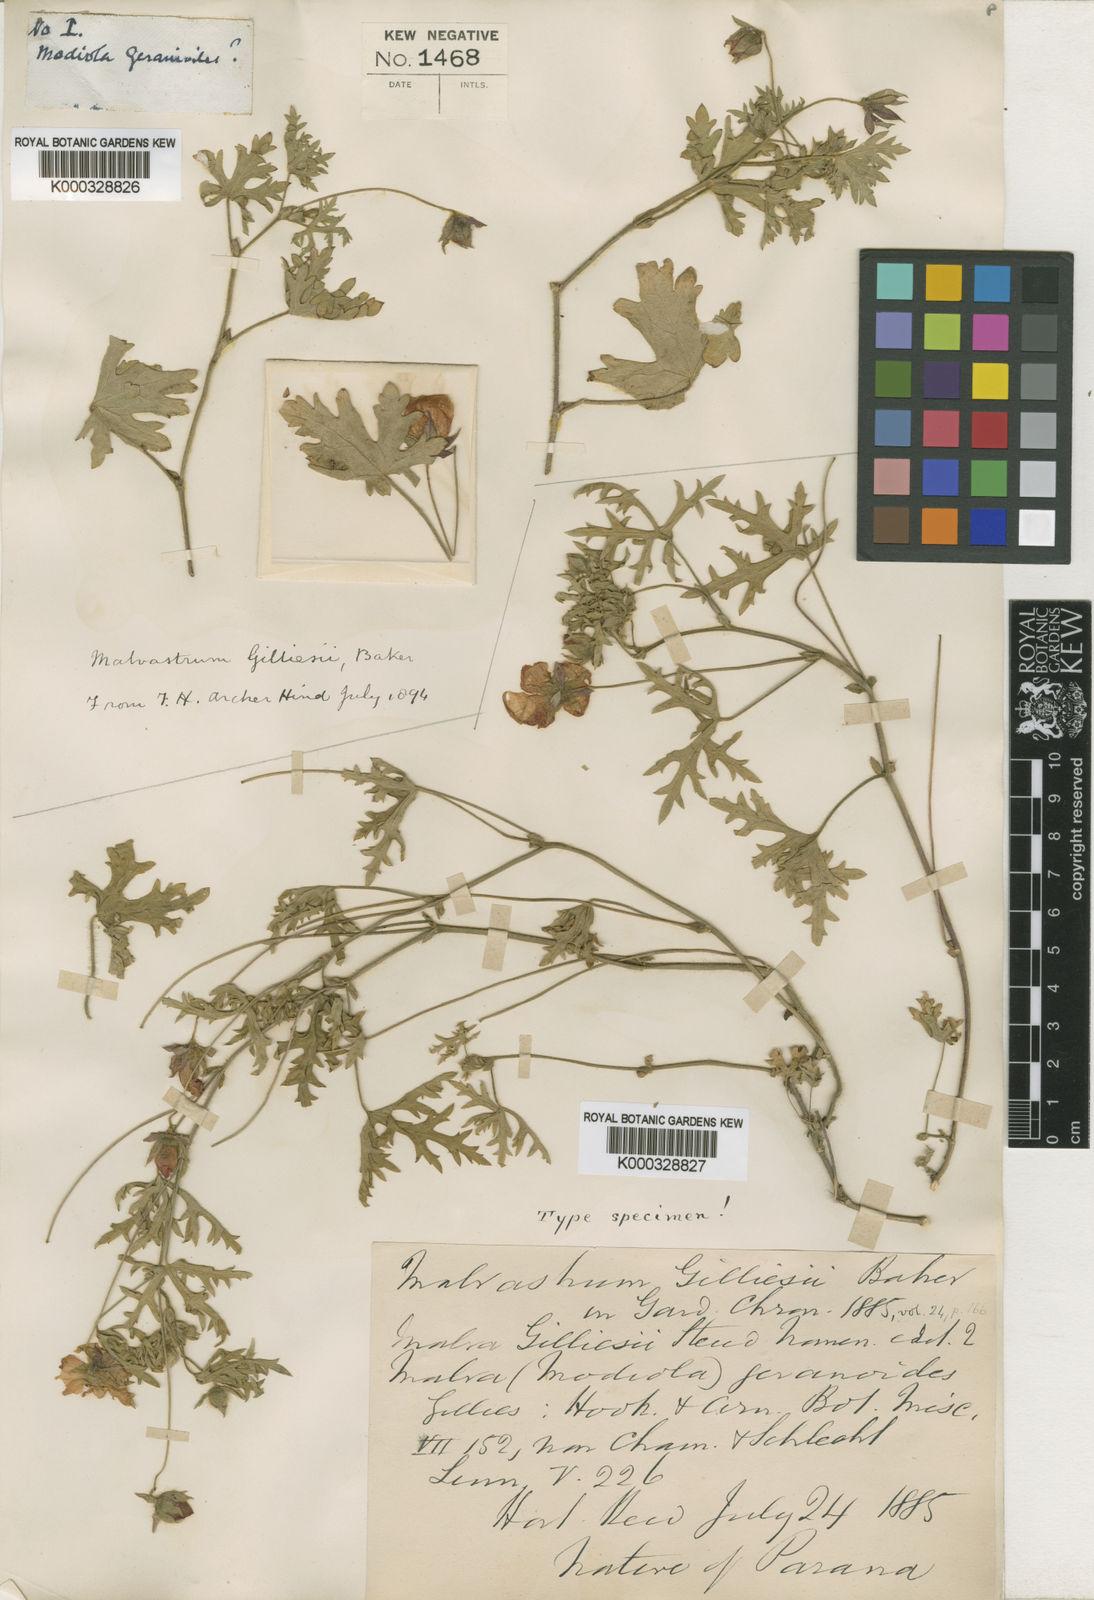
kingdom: Plantae
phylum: Tracheophyta
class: Magnoliopsida
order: Malvales
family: Malvaceae
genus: Modiolastrum
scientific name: Modiolastrum
